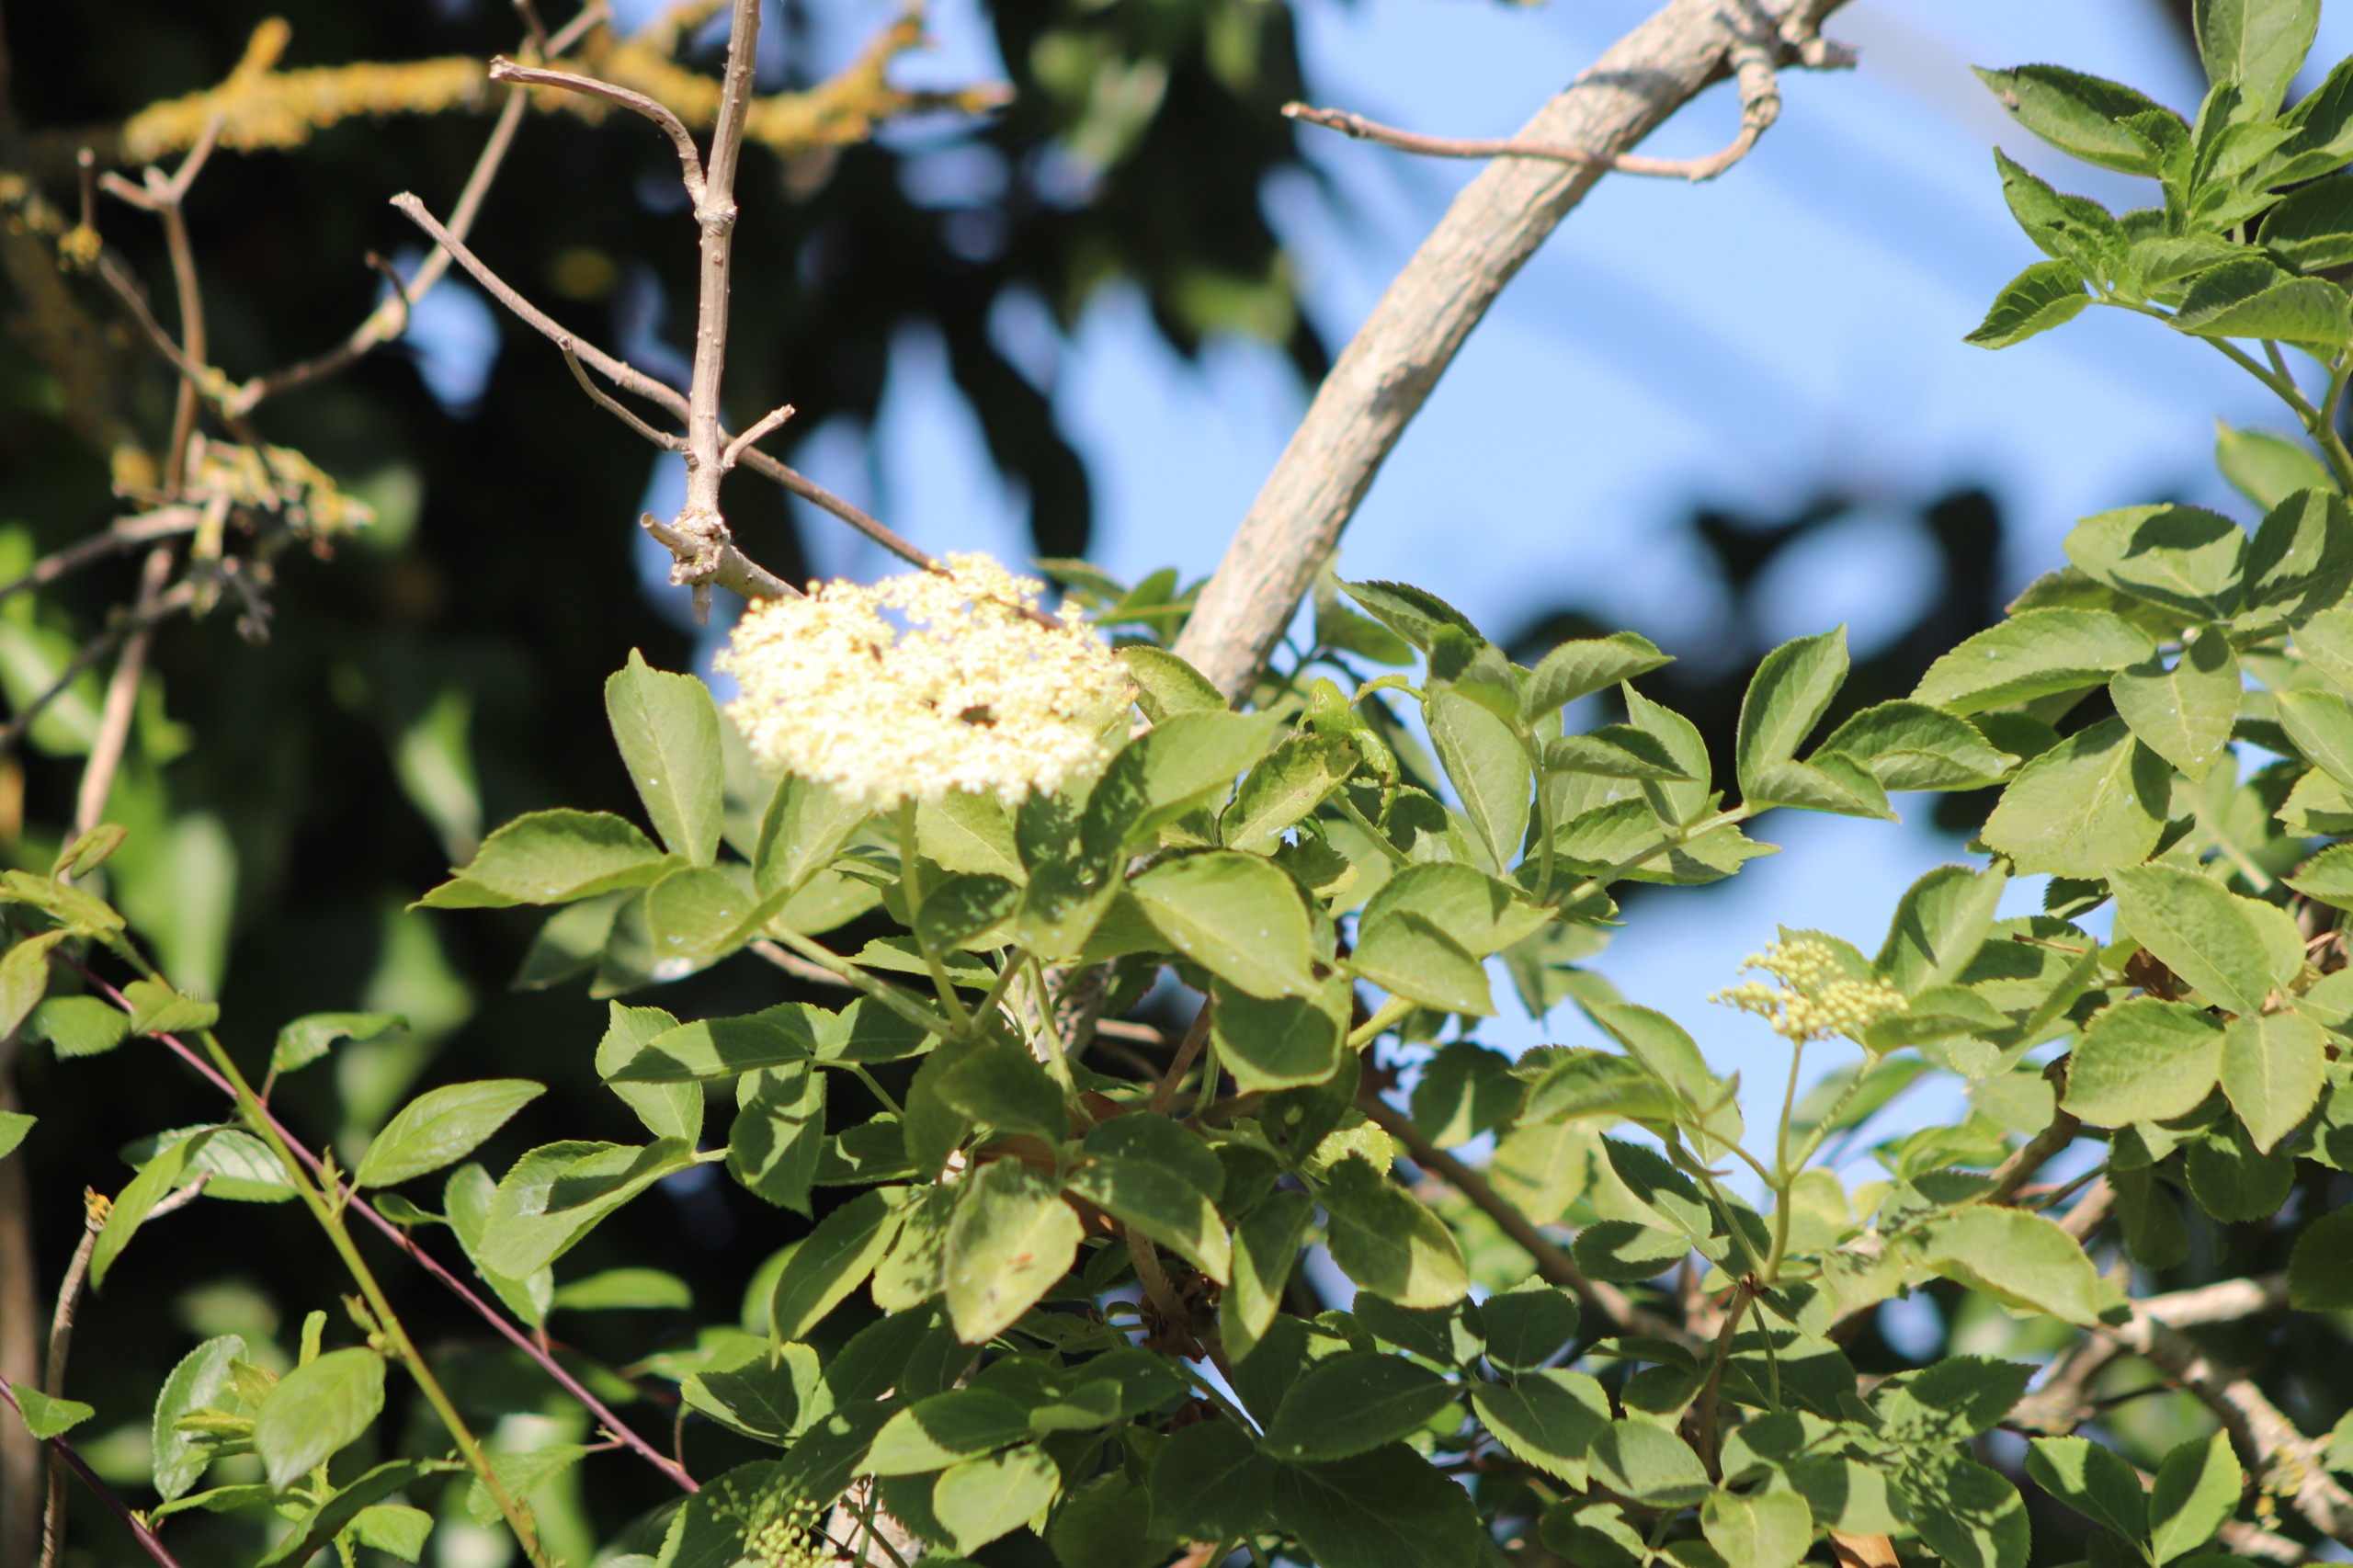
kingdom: Plantae
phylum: Tracheophyta
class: Magnoliopsida
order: Dipsacales
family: Viburnaceae
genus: Sambucus
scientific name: Sambucus nigra
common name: Almindelig hyld
